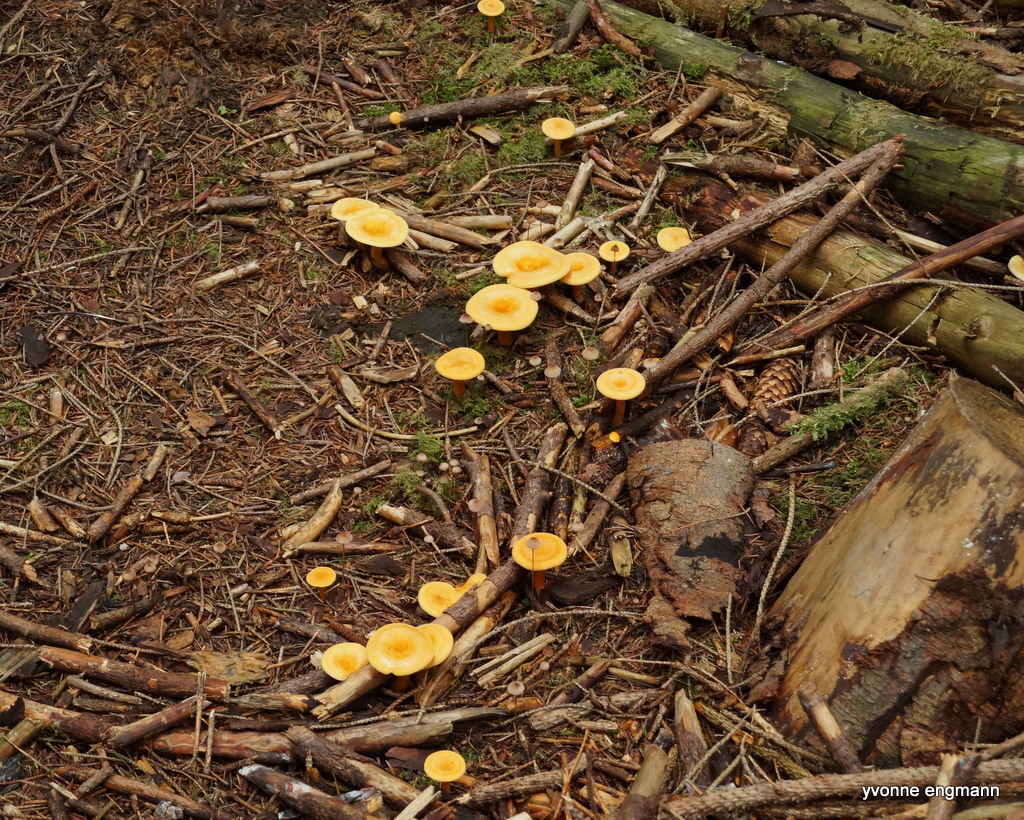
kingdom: Fungi
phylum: Basidiomycota
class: Agaricomycetes
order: Boletales
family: Hygrophoropsidaceae
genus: Hygrophoropsis
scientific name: Hygrophoropsis aurantiaca
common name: almindelig orangekantarel
